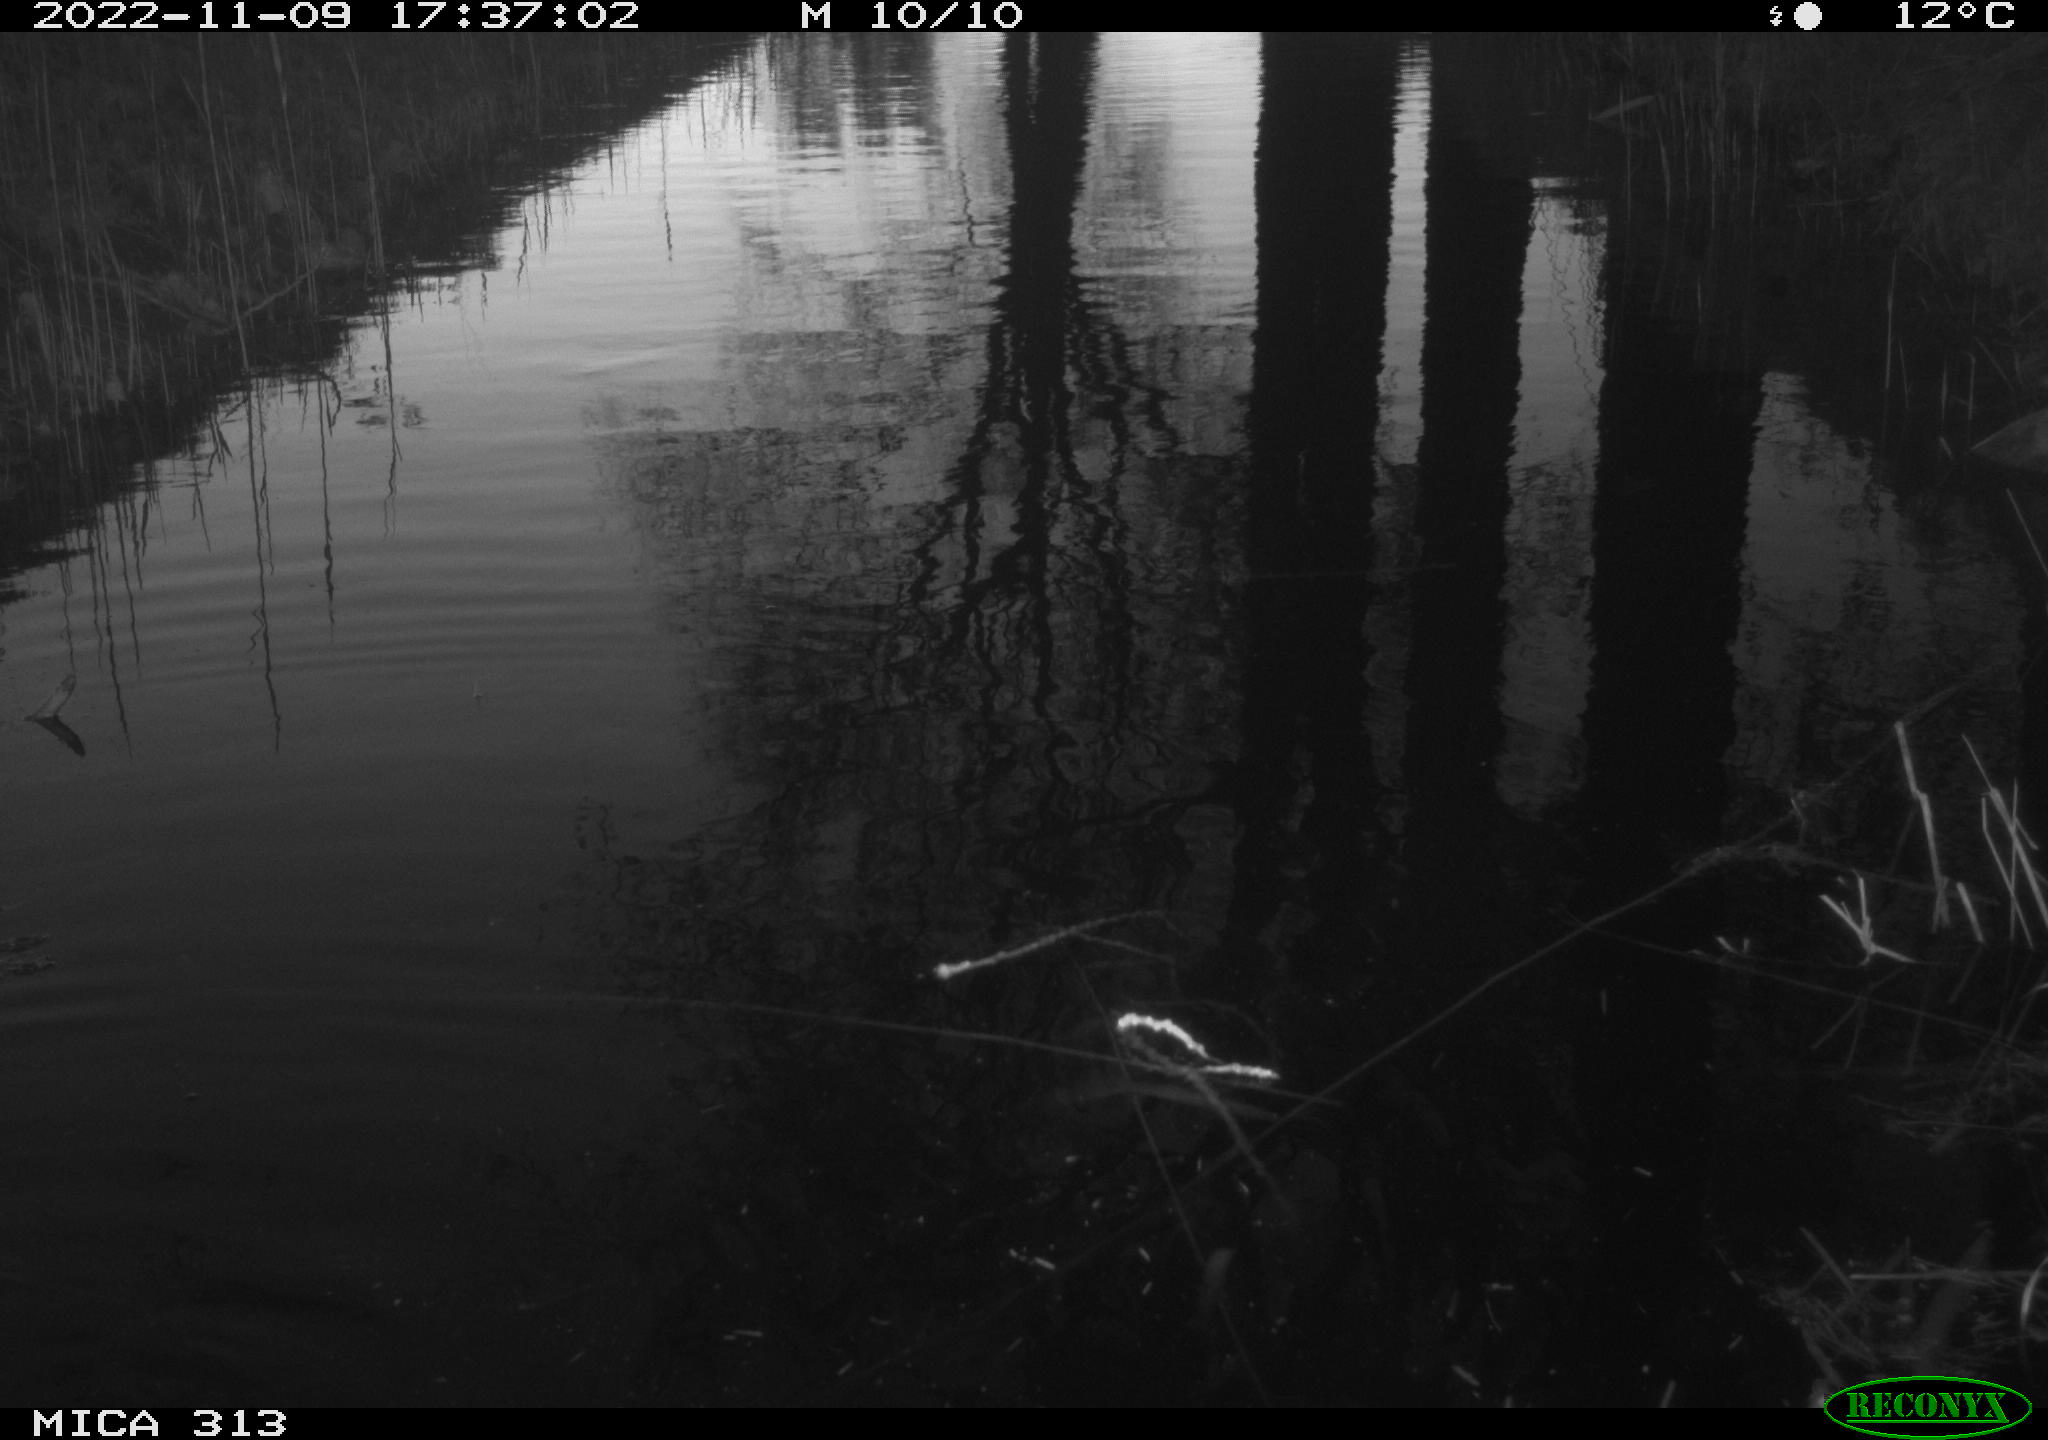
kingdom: Animalia
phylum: Chordata
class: Aves
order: Gruiformes
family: Rallidae
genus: Gallinula
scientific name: Gallinula chloropus
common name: Common moorhen
